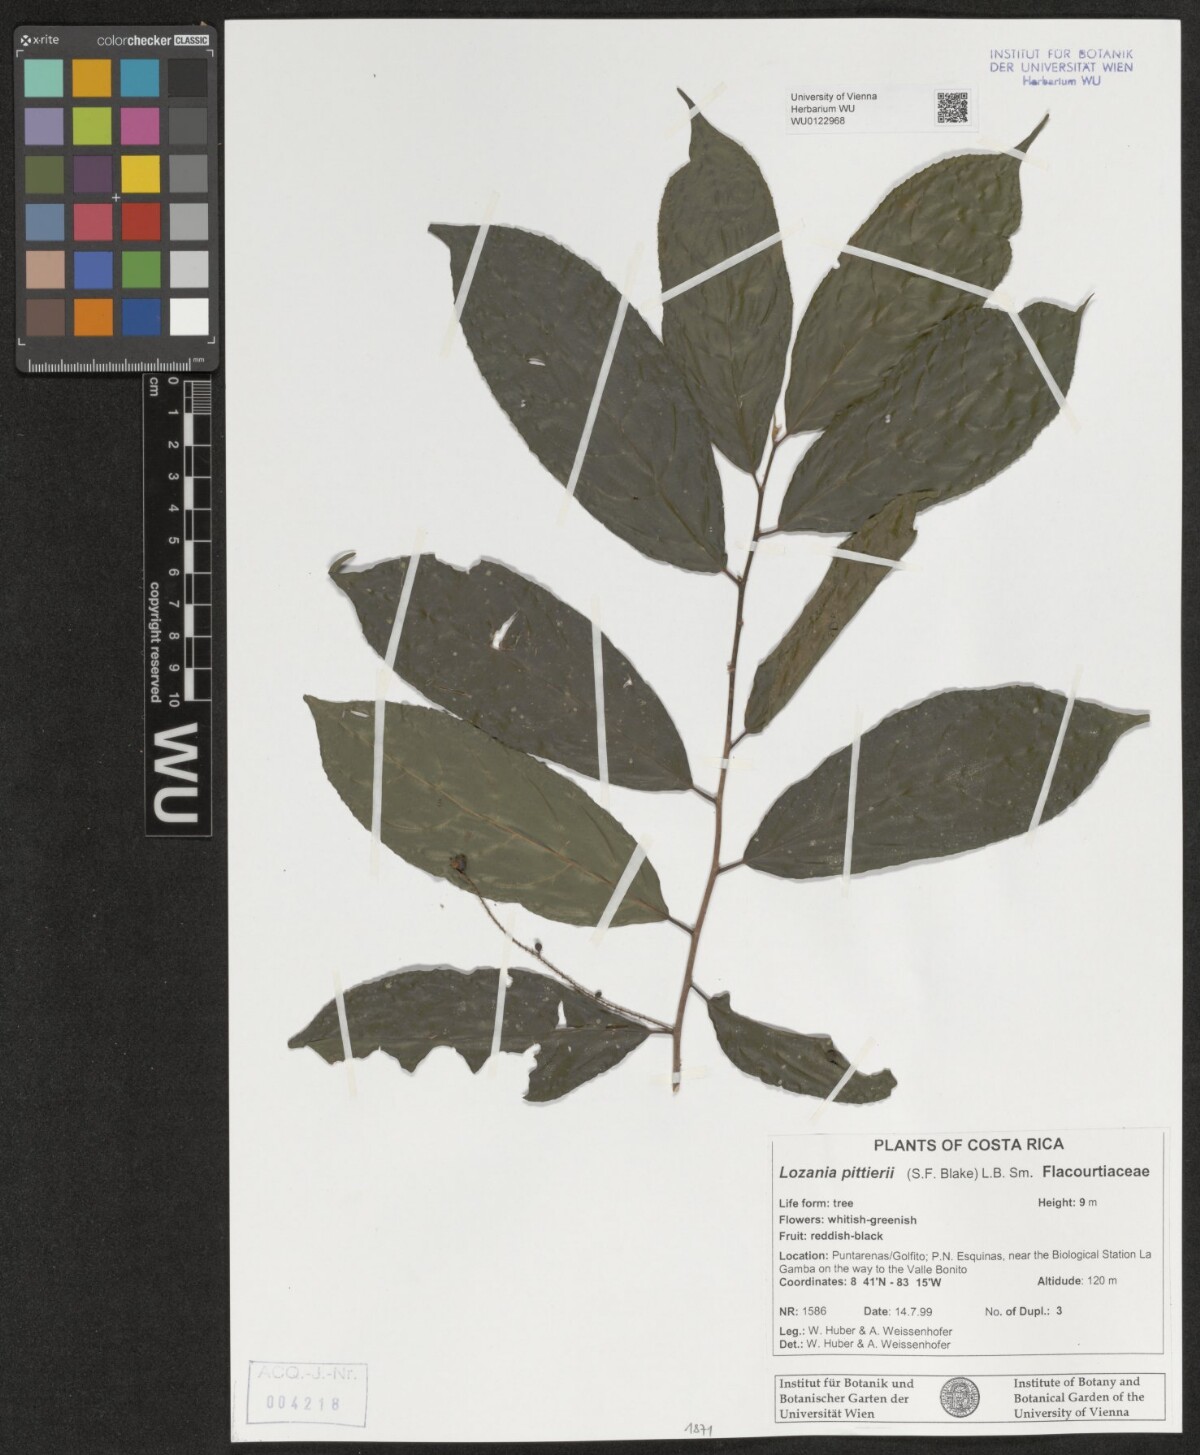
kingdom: Plantae
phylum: Tracheophyta
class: Magnoliopsida
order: Malpighiales
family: Lacistemataceae
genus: Lozania
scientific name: Lozania pittieri
